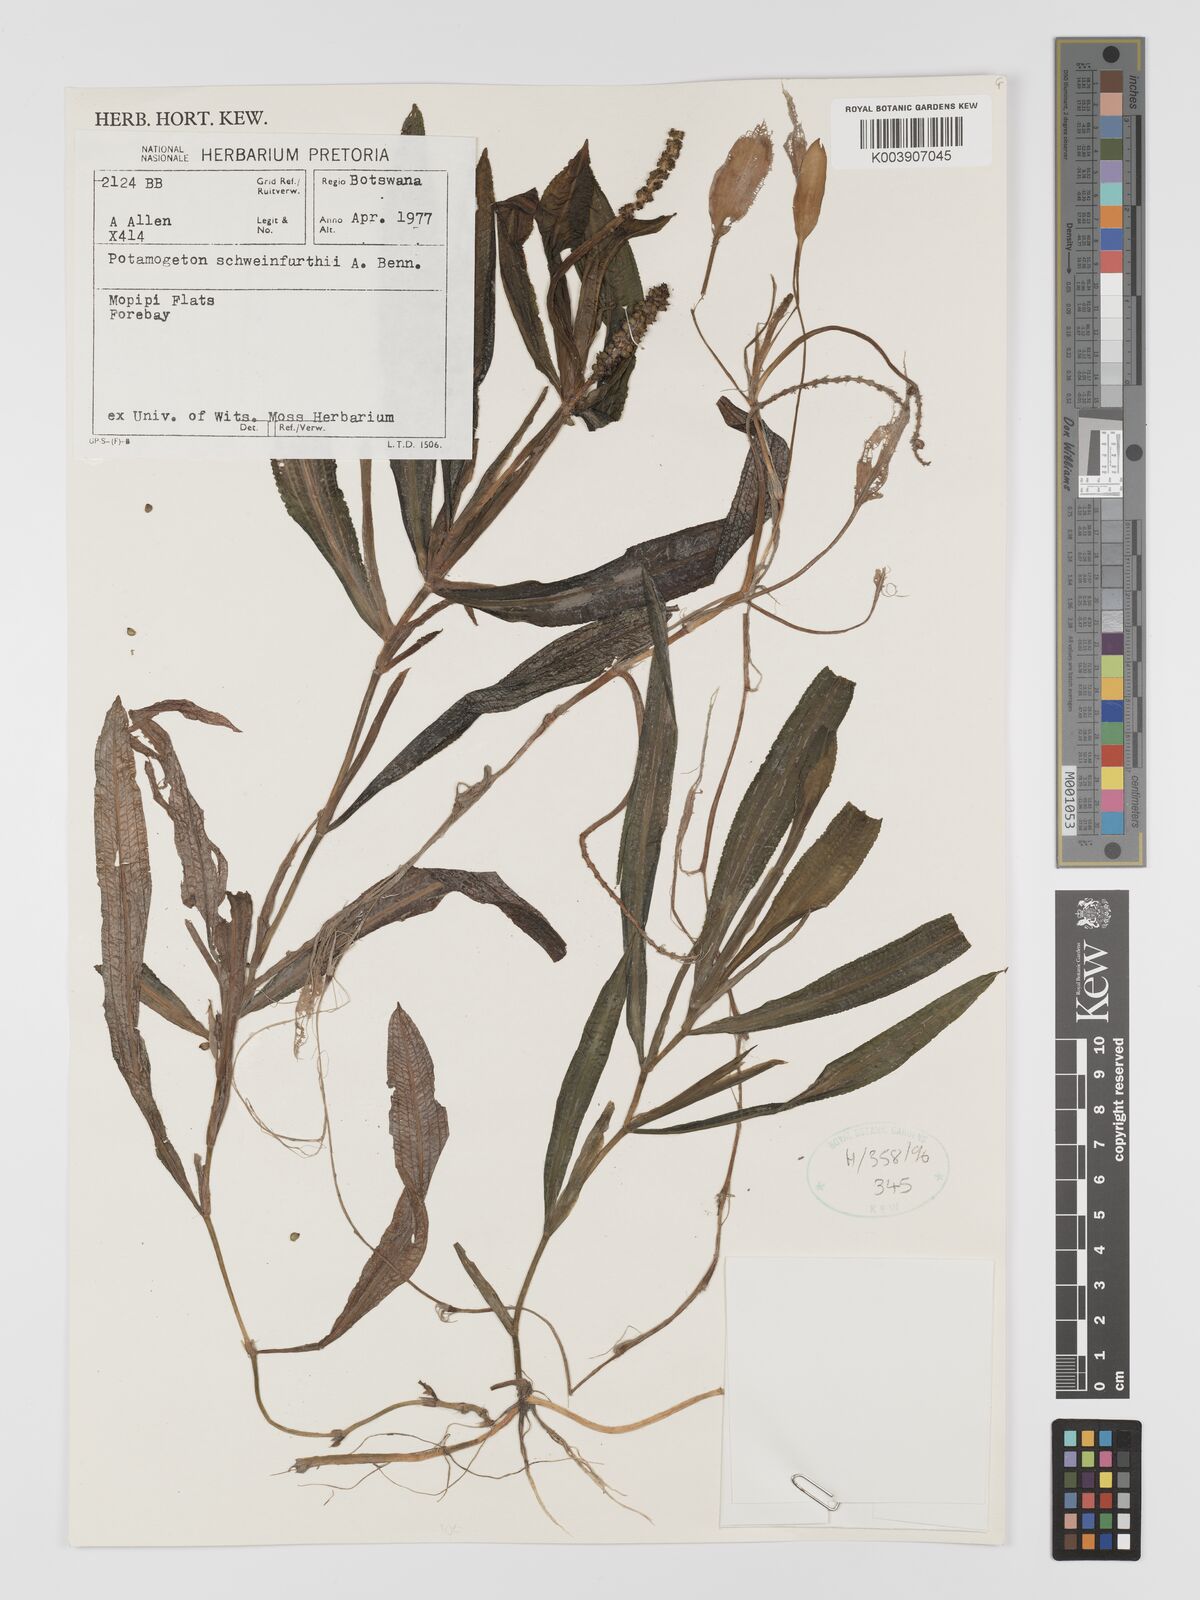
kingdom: Plantae
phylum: Tracheophyta
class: Liliopsida
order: Alismatales
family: Potamogetonaceae
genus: Potamogeton
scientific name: Potamogeton schweinfurthii
